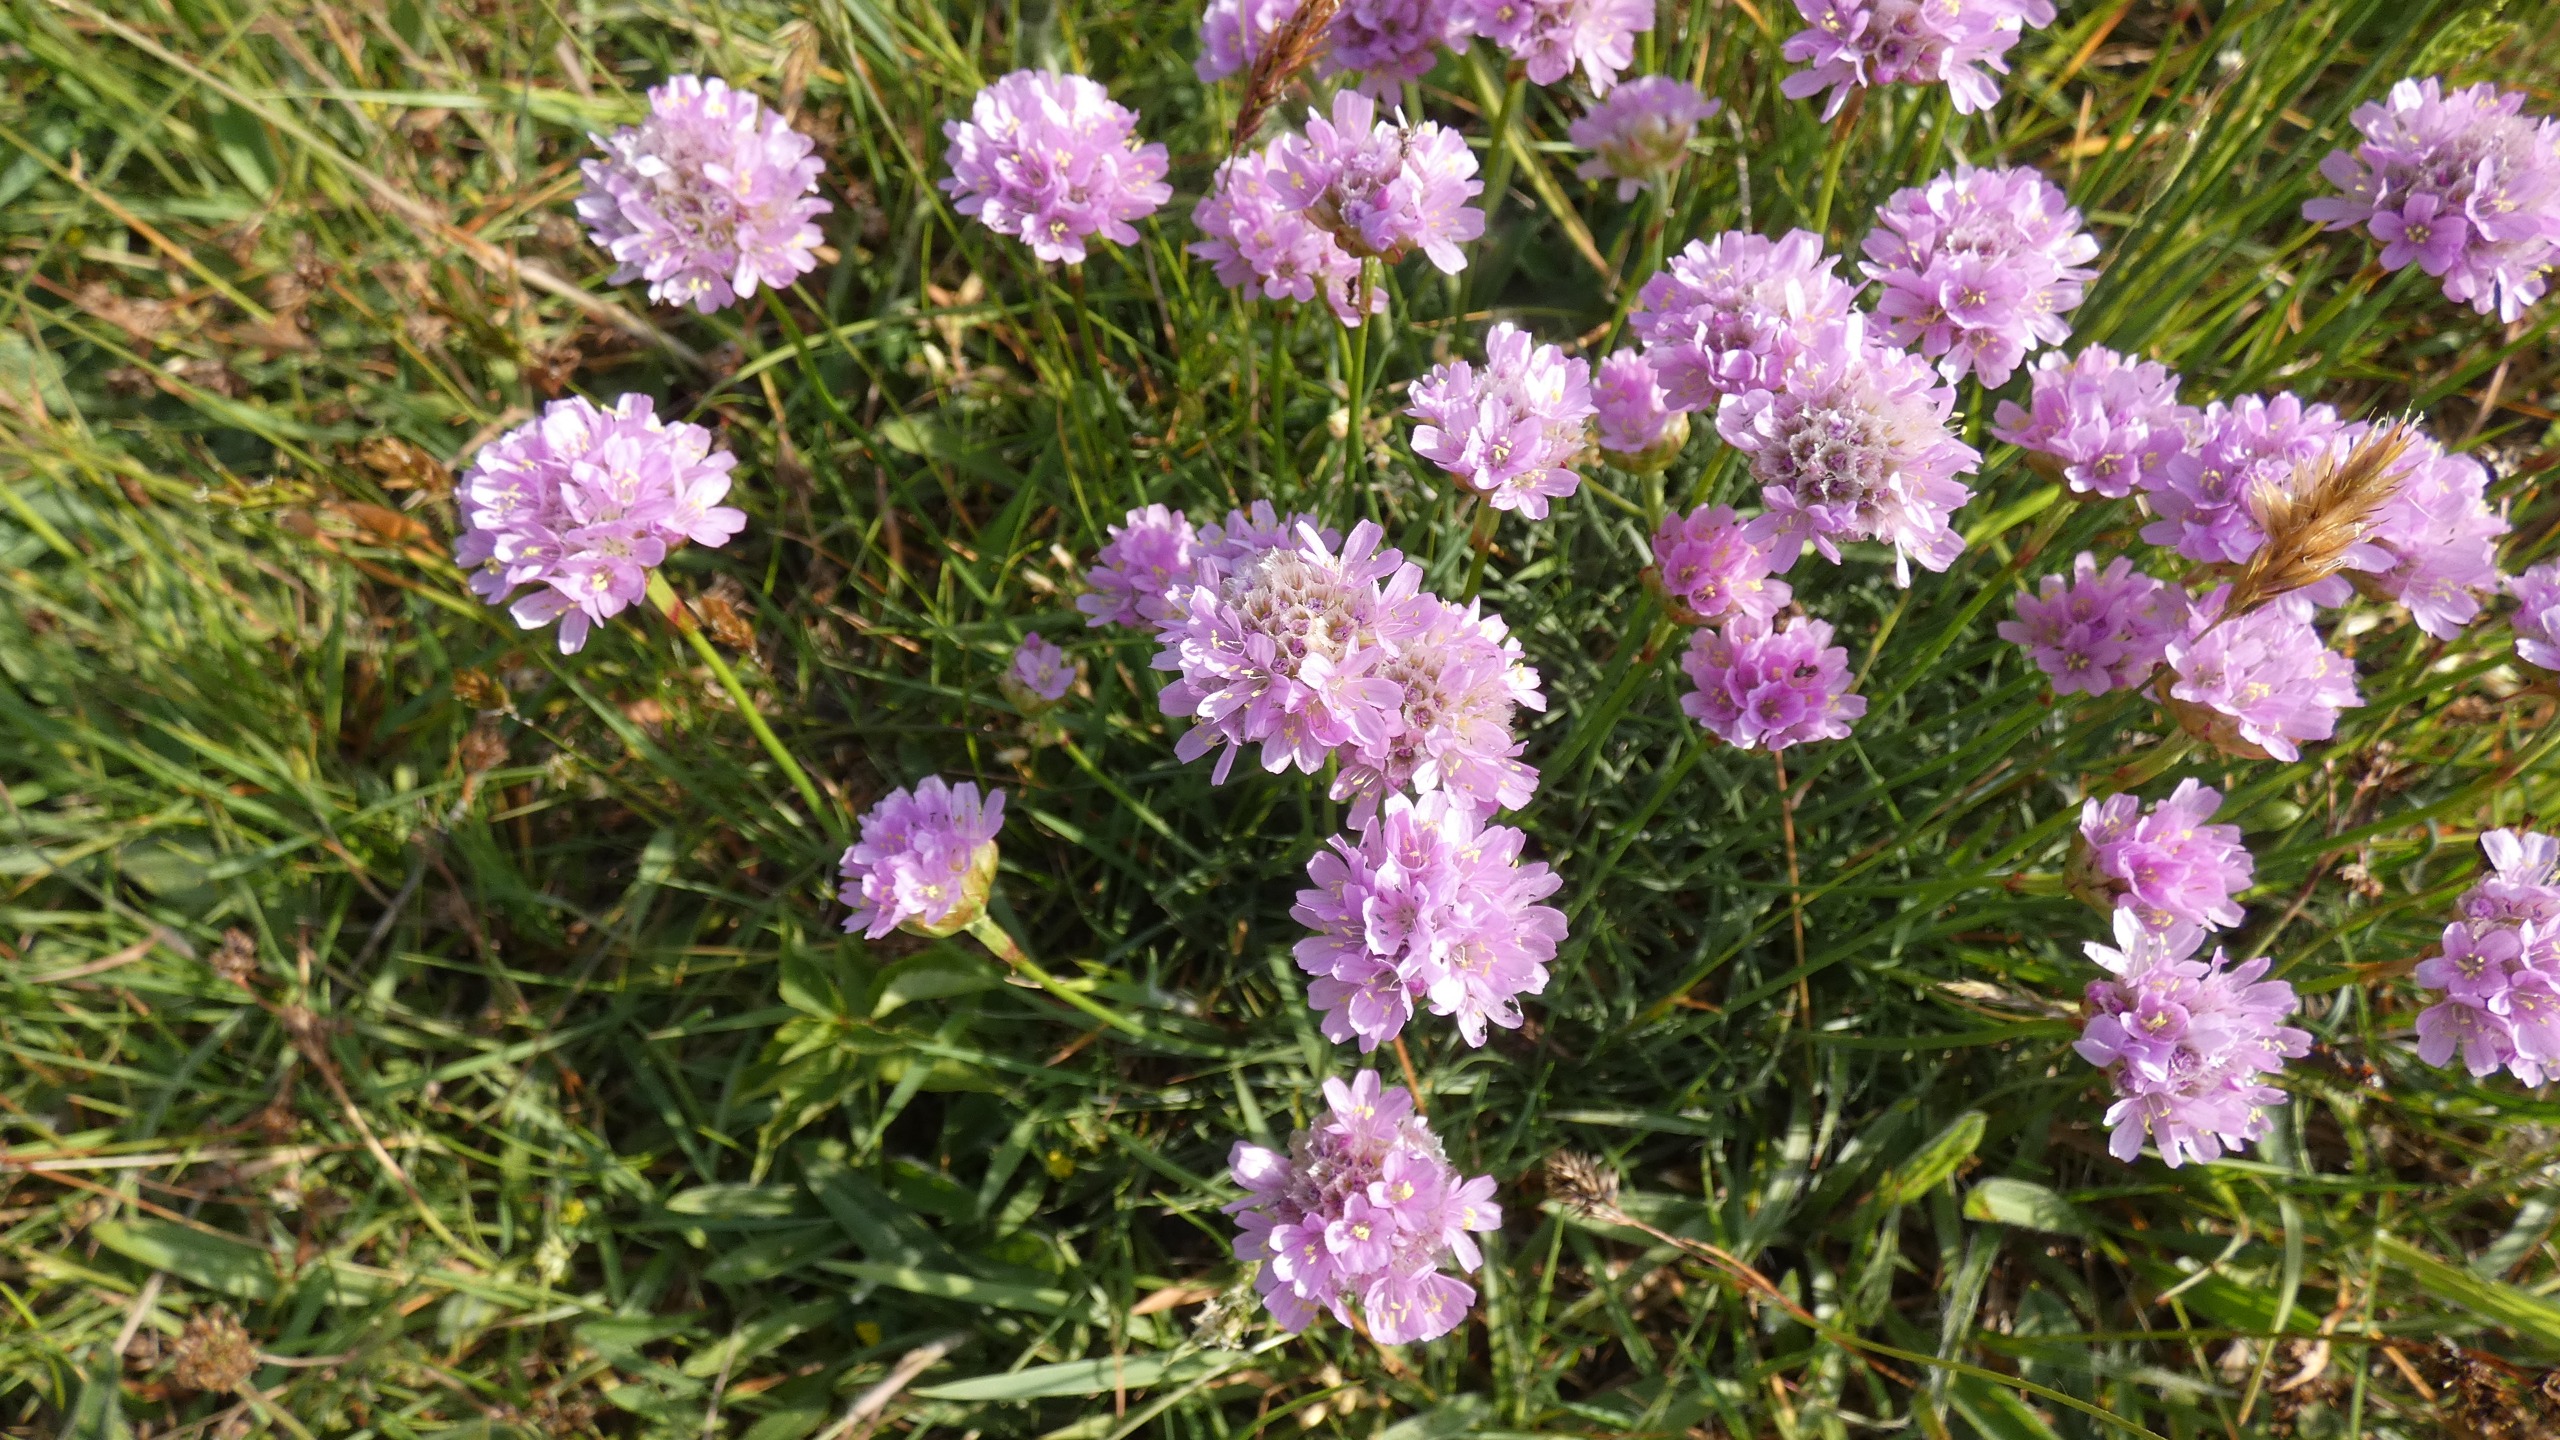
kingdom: Plantae
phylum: Tracheophyta
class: Magnoliopsida
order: Caryophyllales
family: Plumbaginaceae
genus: Armeria
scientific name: Armeria maritima
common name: Engelskgræs
